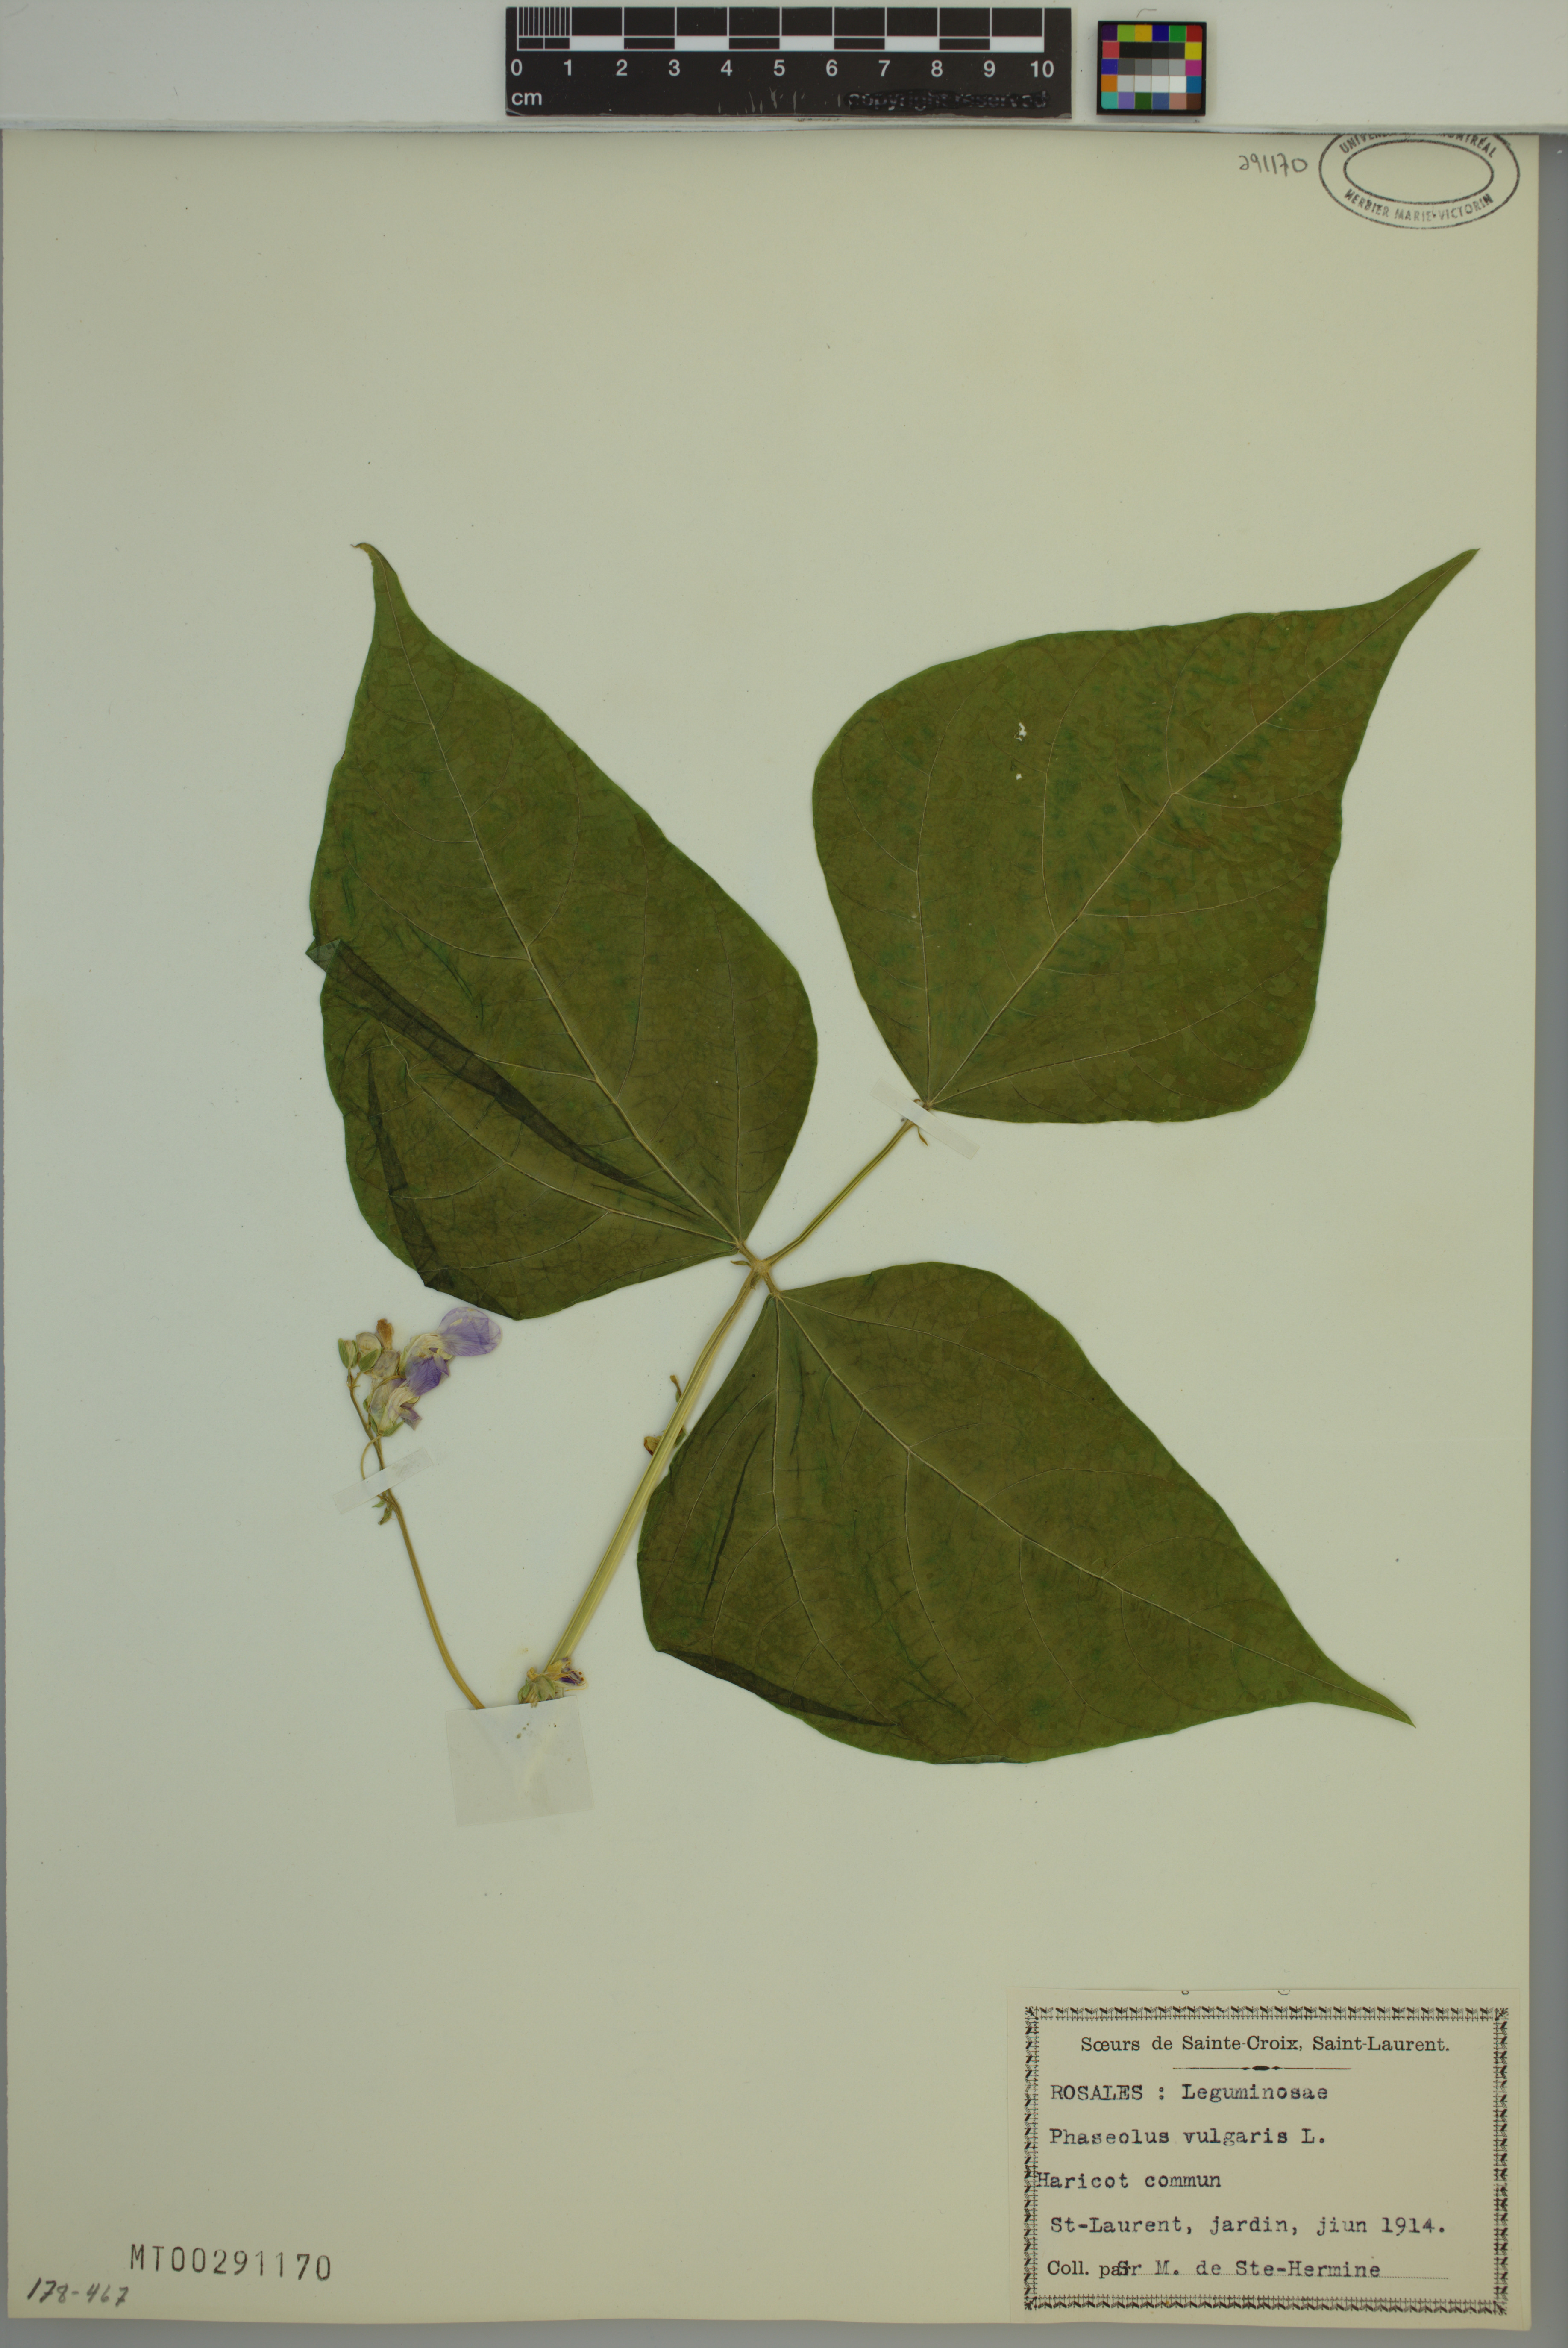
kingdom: Plantae
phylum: Tracheophyta
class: Magnoliopsida
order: Fabales
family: Fabaceae
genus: Phaseolus
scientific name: Phaseolus vulgaris
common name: Bean
